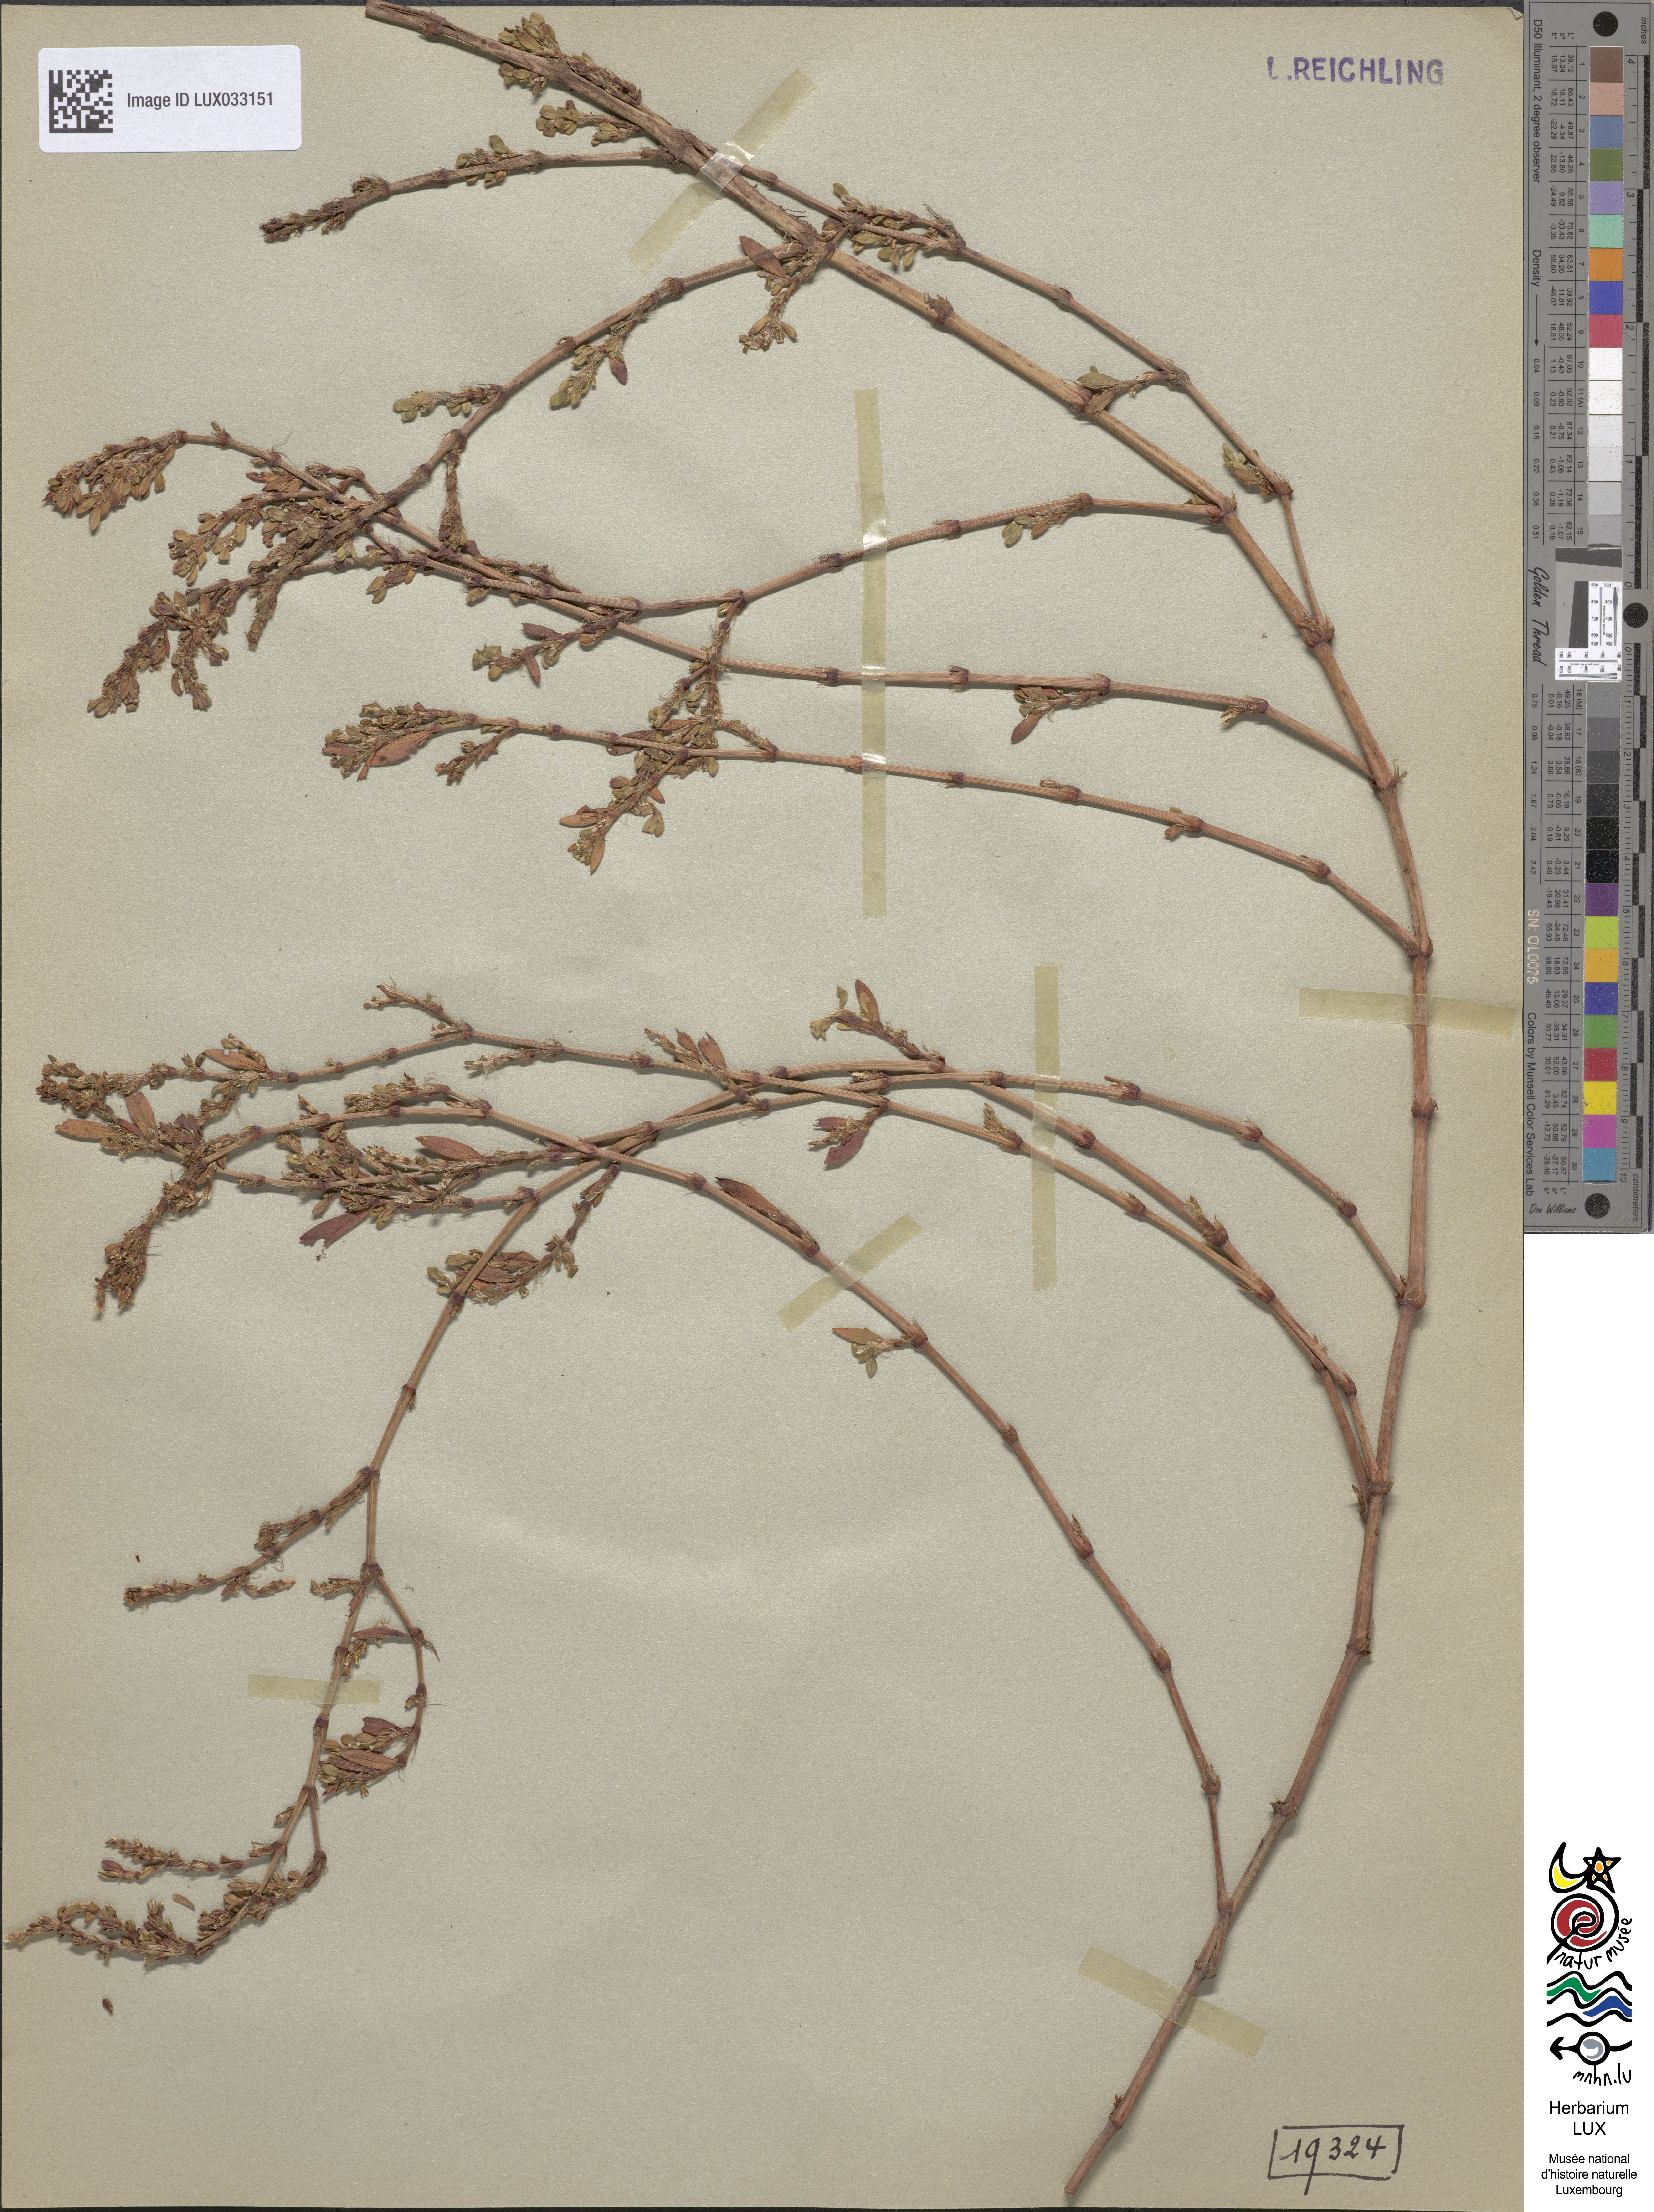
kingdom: Plantae
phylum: Tracheophyta
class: Magnoliopsida
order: Caryophyllales
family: Polygonaceae
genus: Polygonum
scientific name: Polygonum aviculare
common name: Prostrate knotweed
